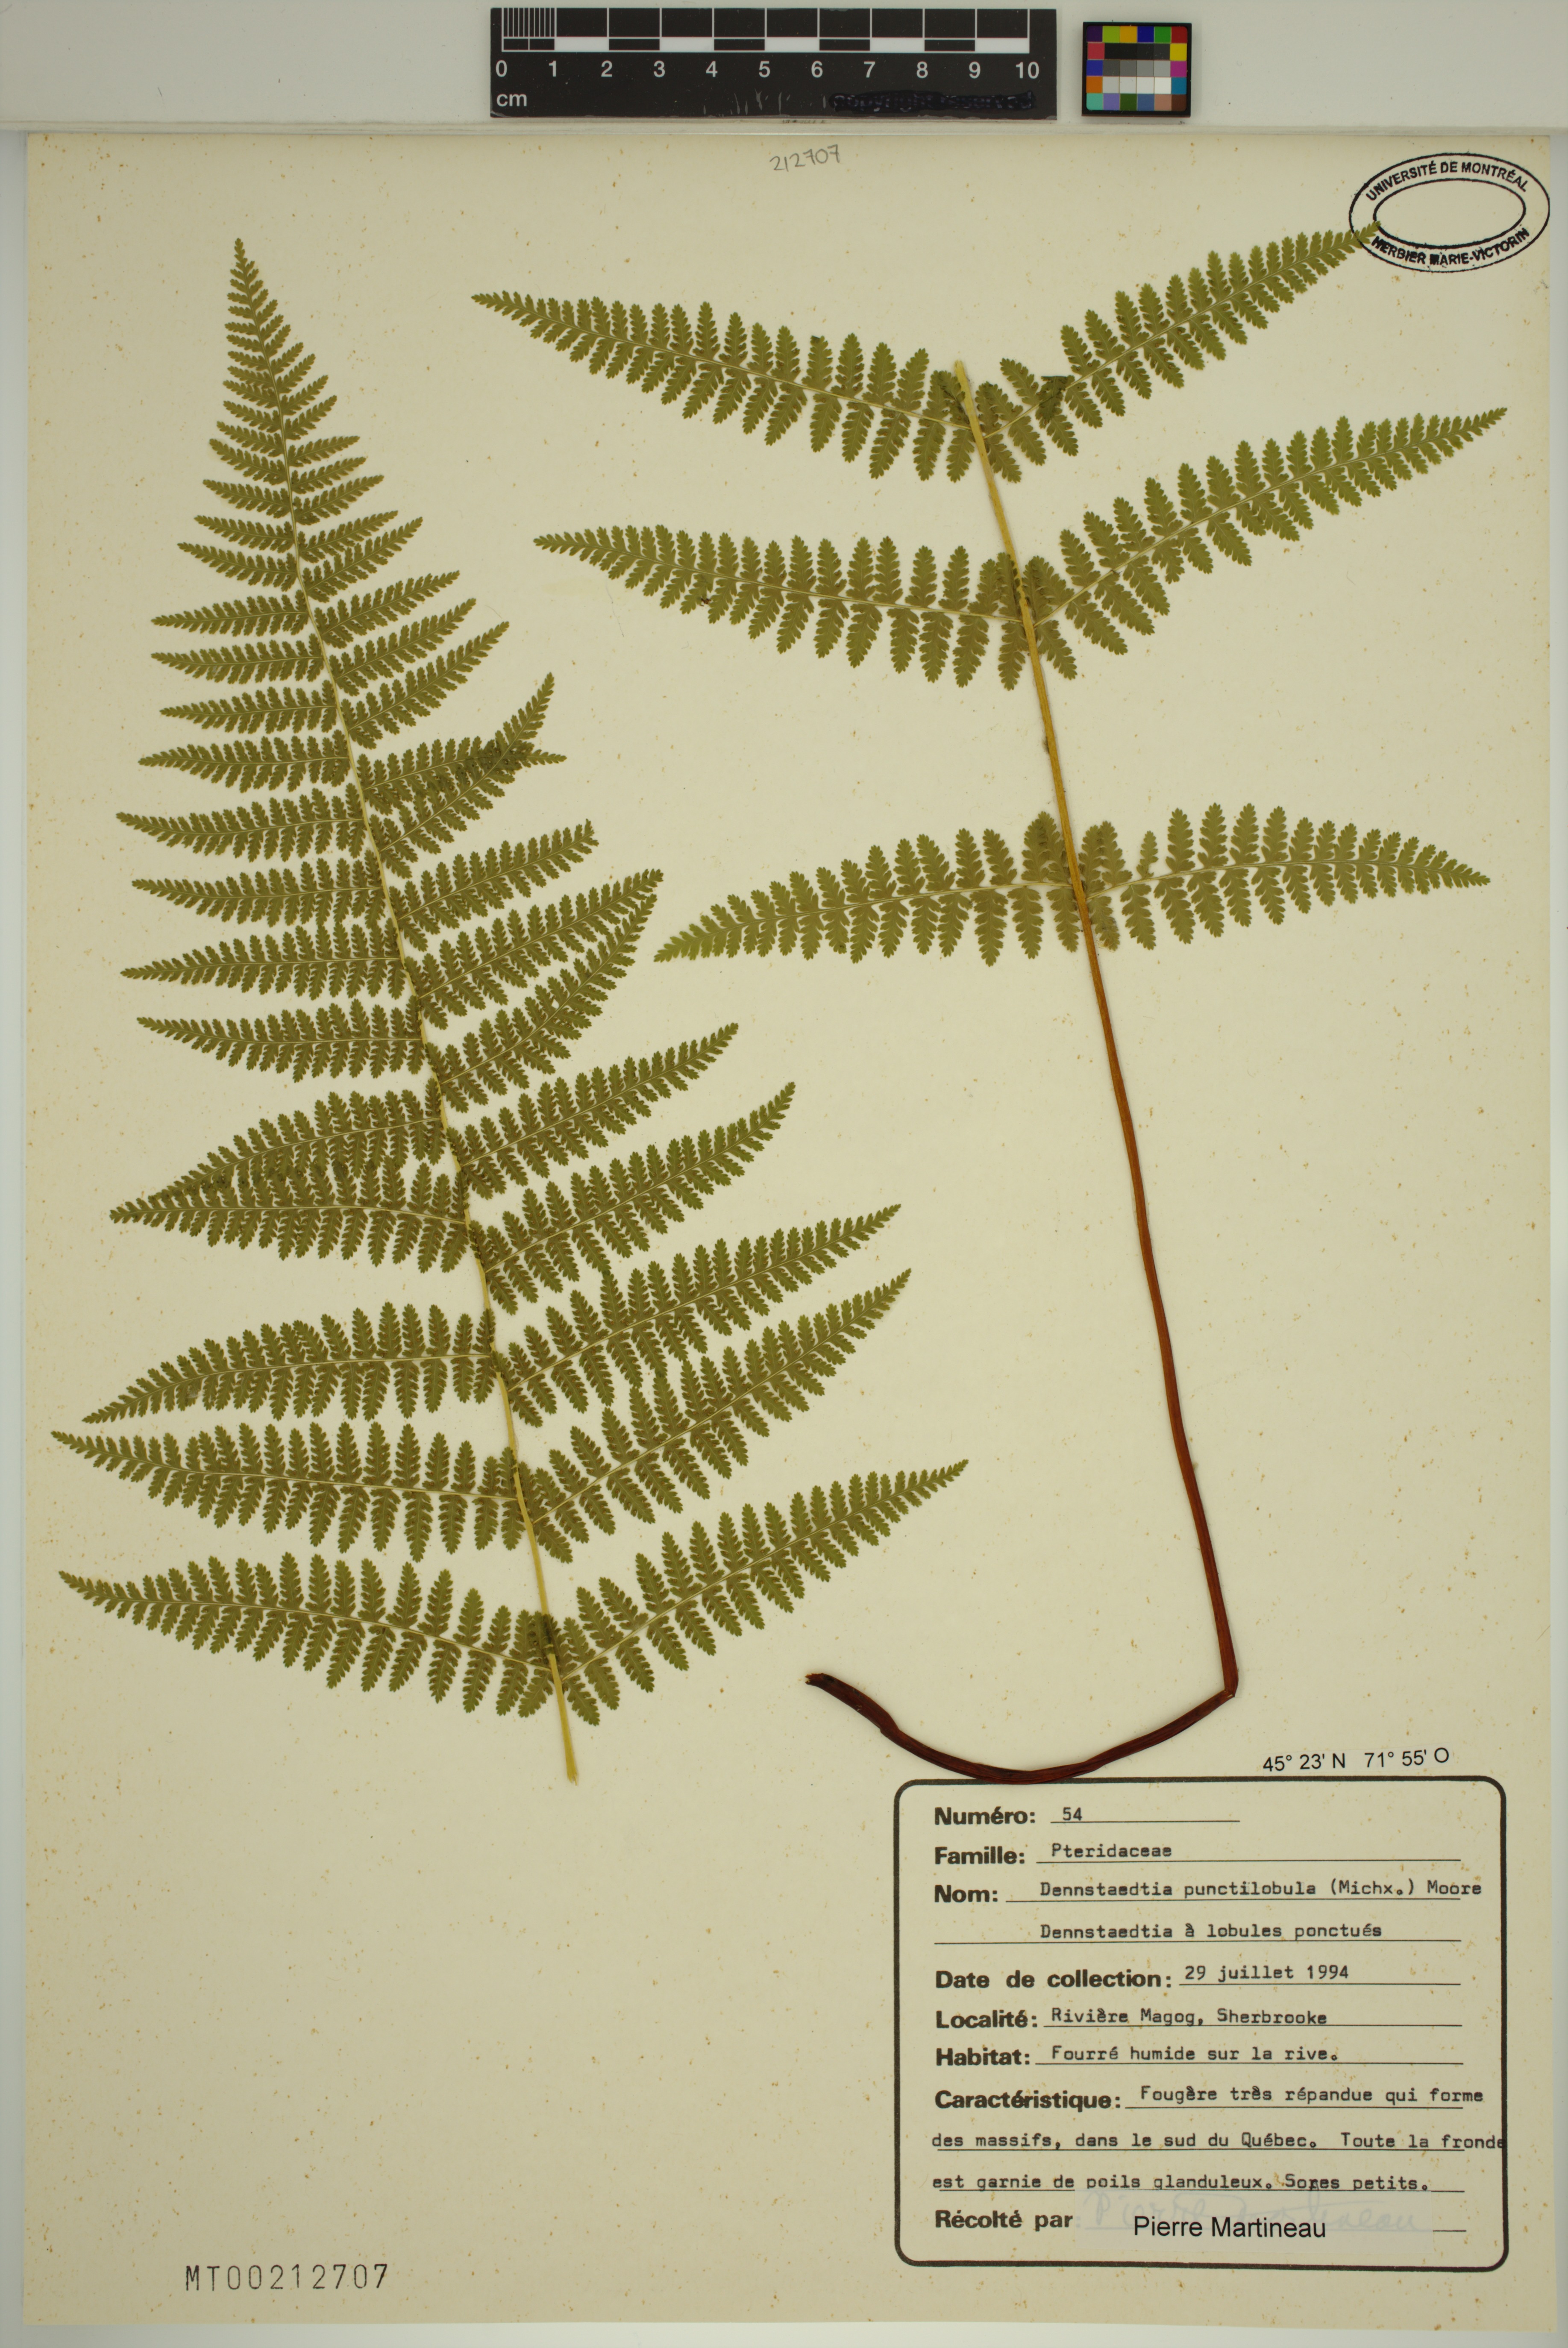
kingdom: Plantae
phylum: Tracheophyta
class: Polypodiopsida
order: Polypodiales
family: Dennstaedtiaceae
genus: Sitobolium
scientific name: Sitobolium punctilobum
